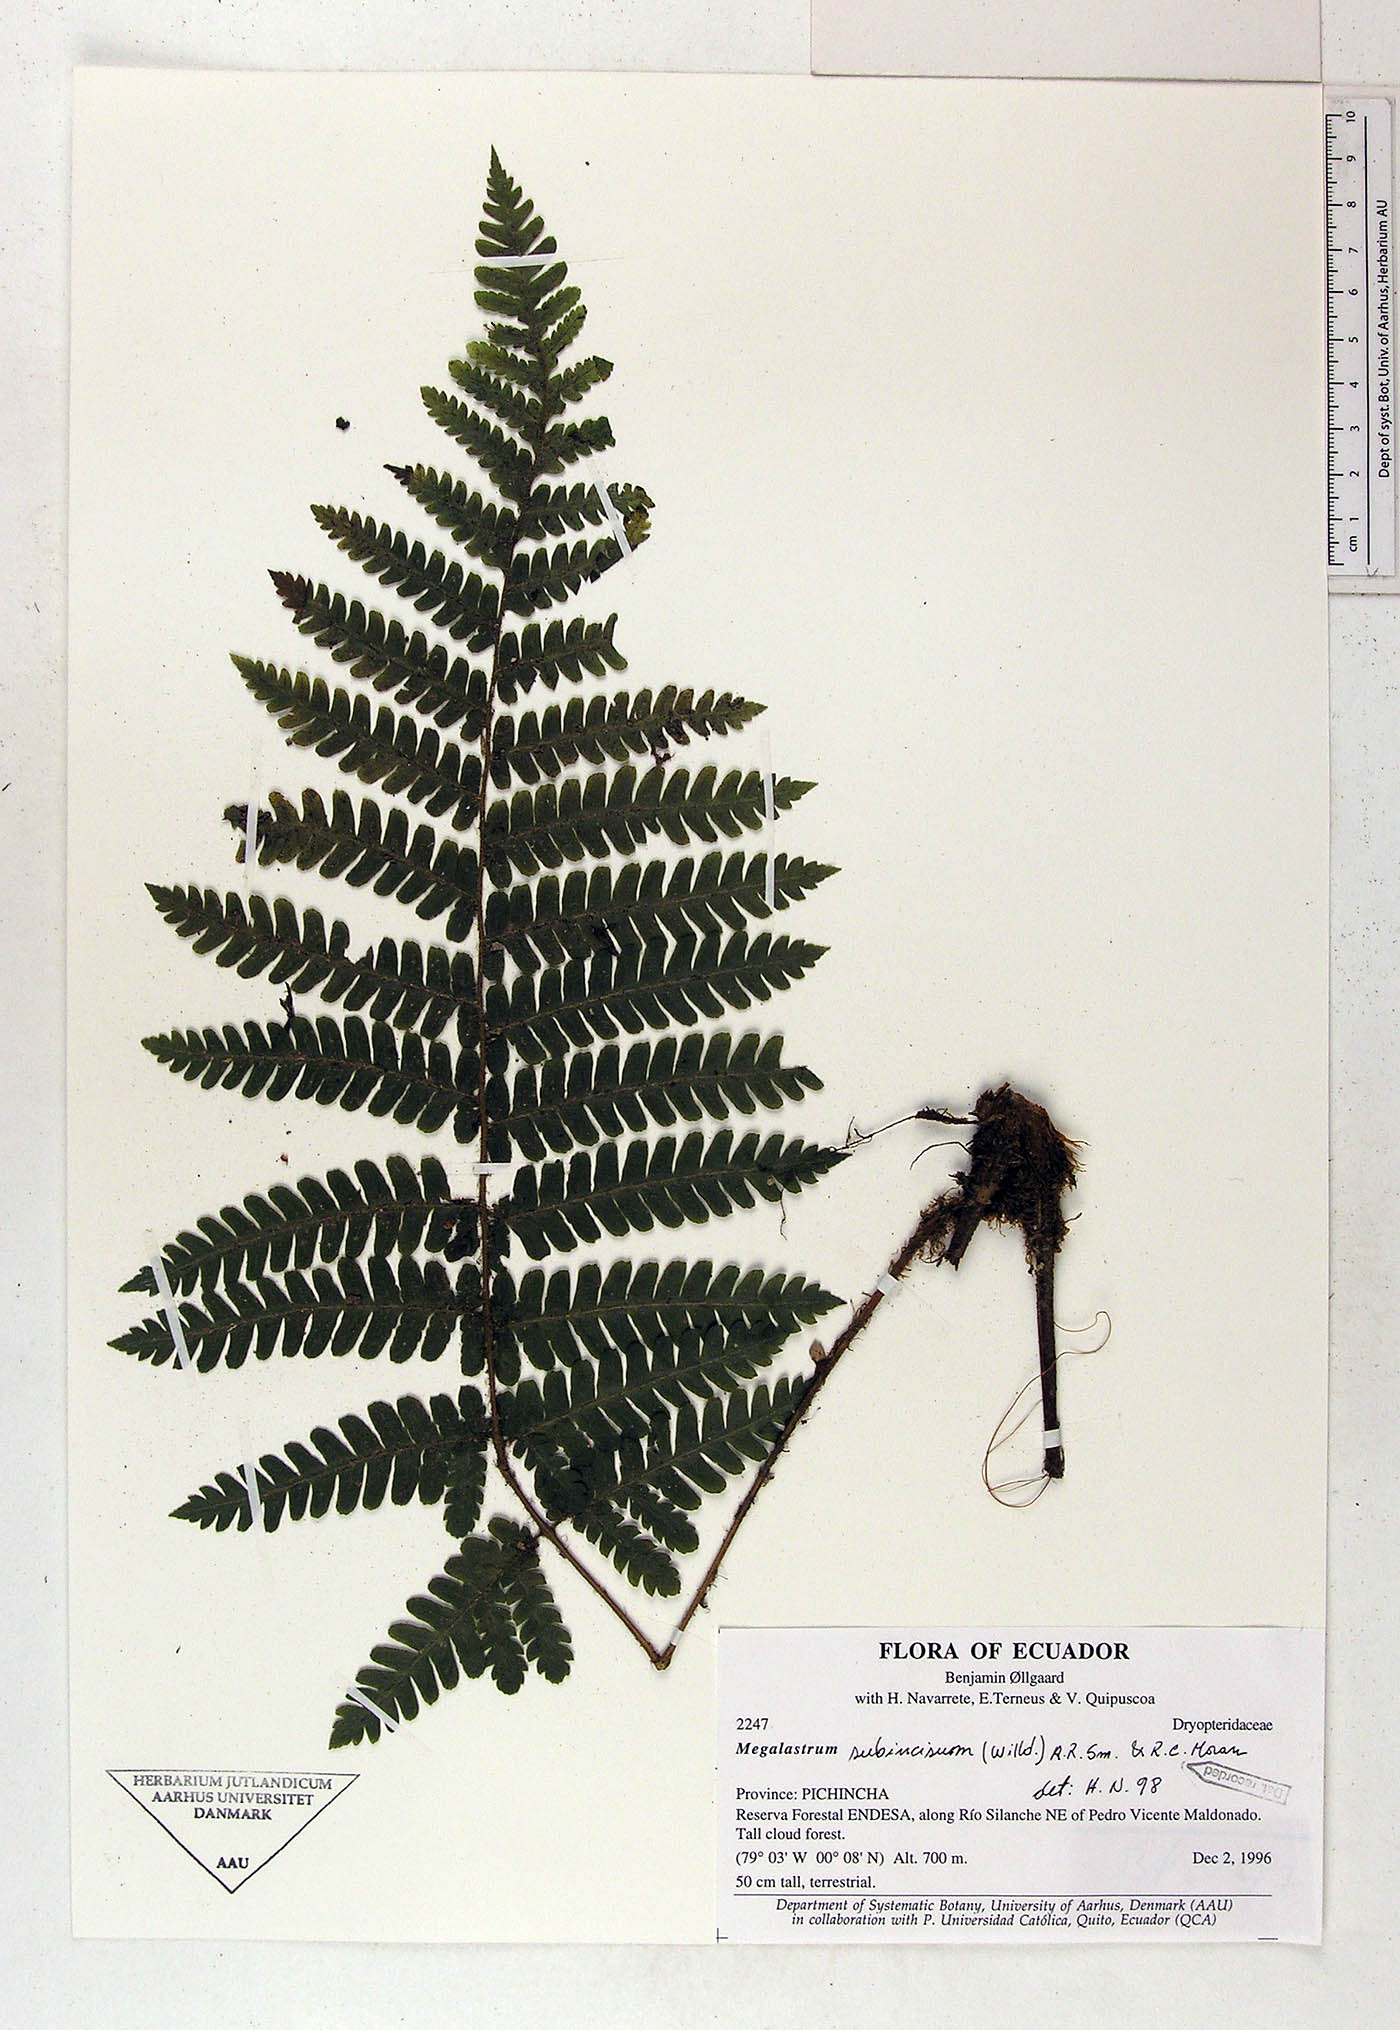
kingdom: Plantae
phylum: Tracheophyta
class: Polypodiopsida
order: Polypodiales
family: Dryopteridaceae
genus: Megalastrum
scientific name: Megalastrum obtusum
